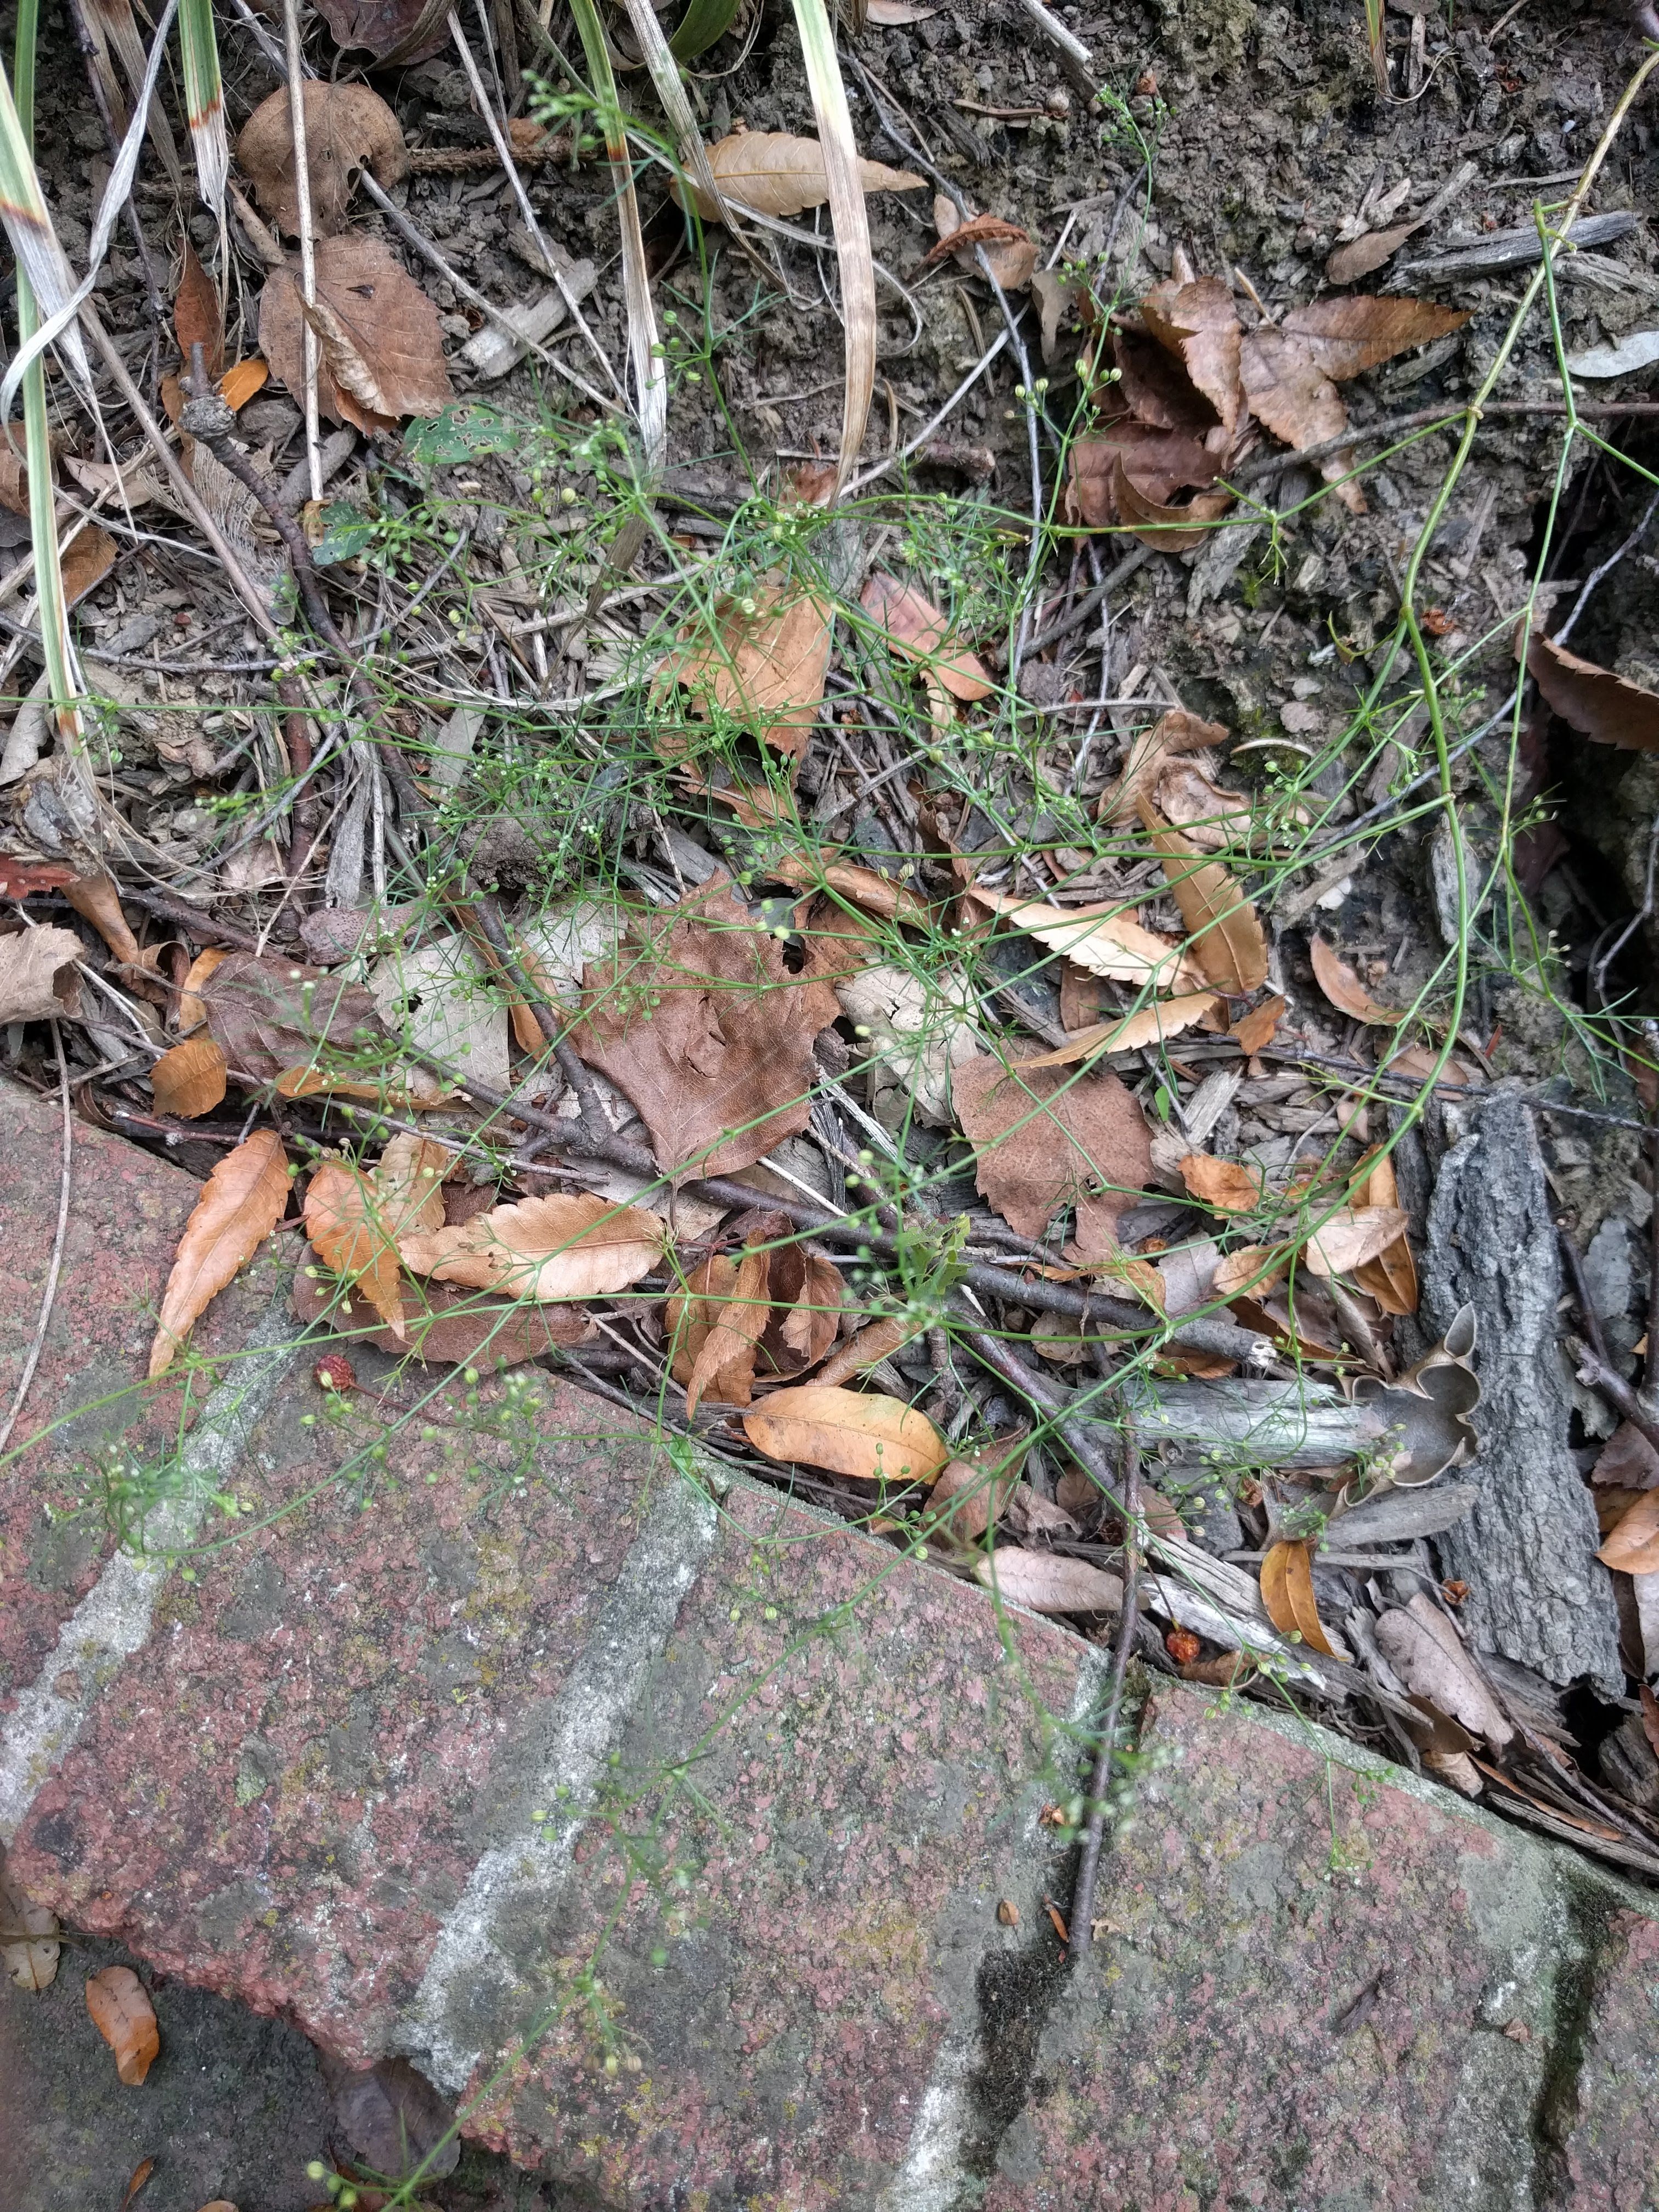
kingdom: Plantae
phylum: Tracheophyta
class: Magnoliopsida
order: Apiales
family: Apiaceae
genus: Cyclospermum
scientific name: Cyclospermum leptophyllum
